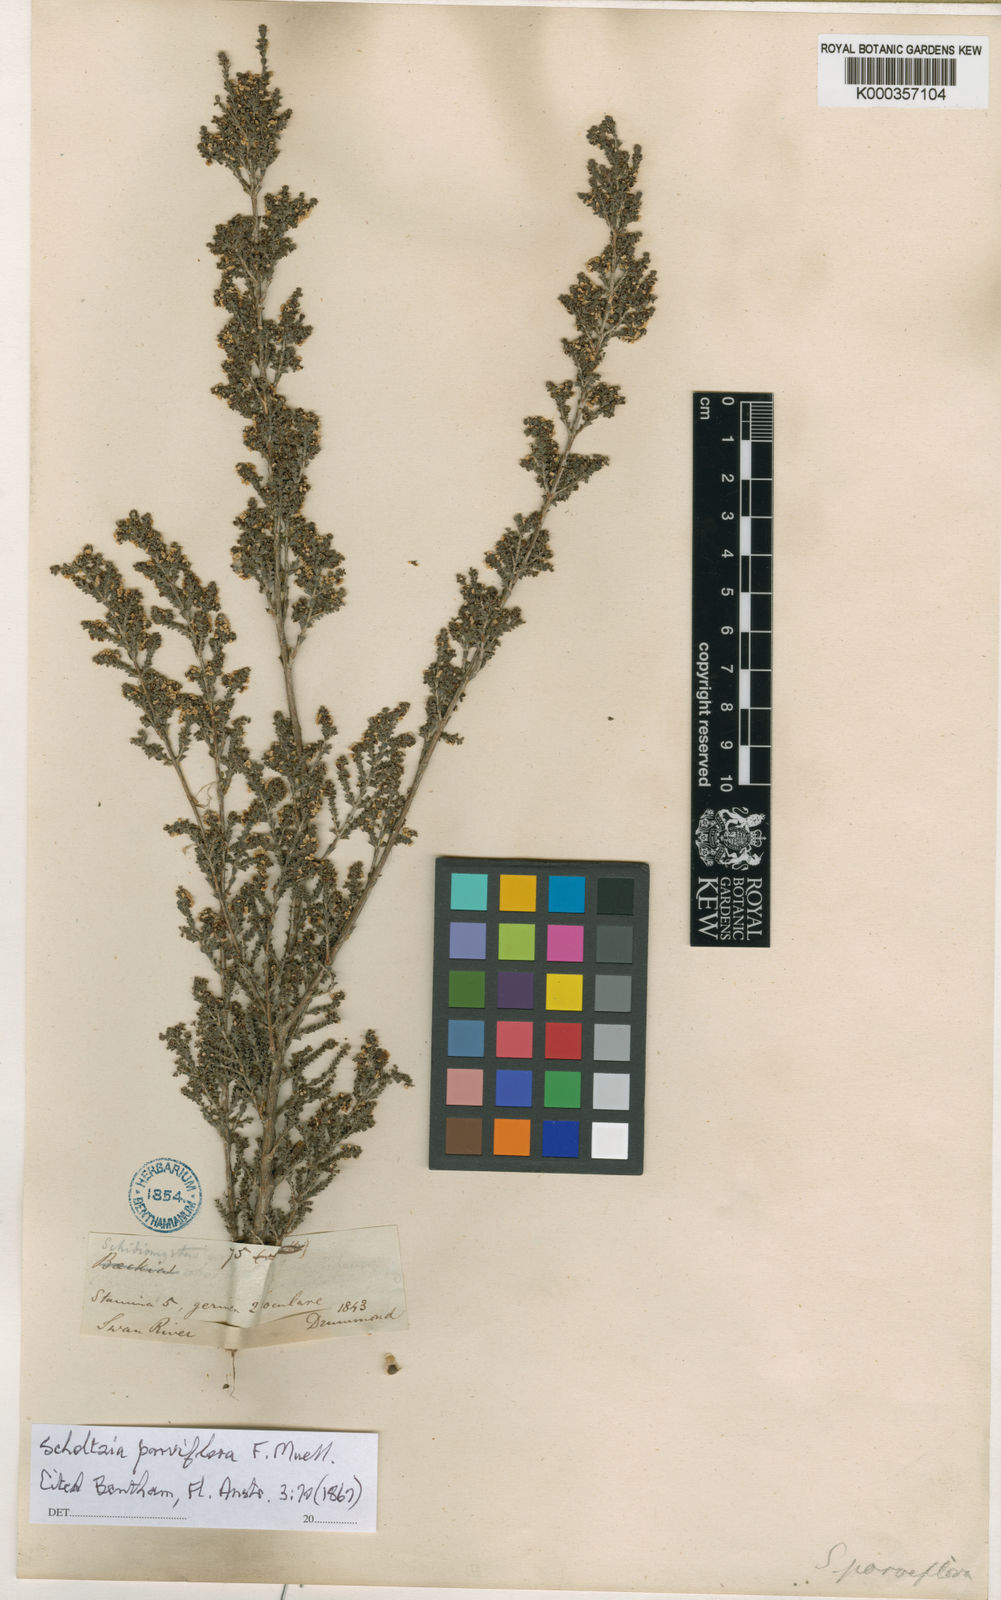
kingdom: Plantae
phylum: Tracheophyta
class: Magnoliopsida
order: Myrtales
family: Myrtaceae
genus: Scholtzia
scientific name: Scholtzia parviflora
